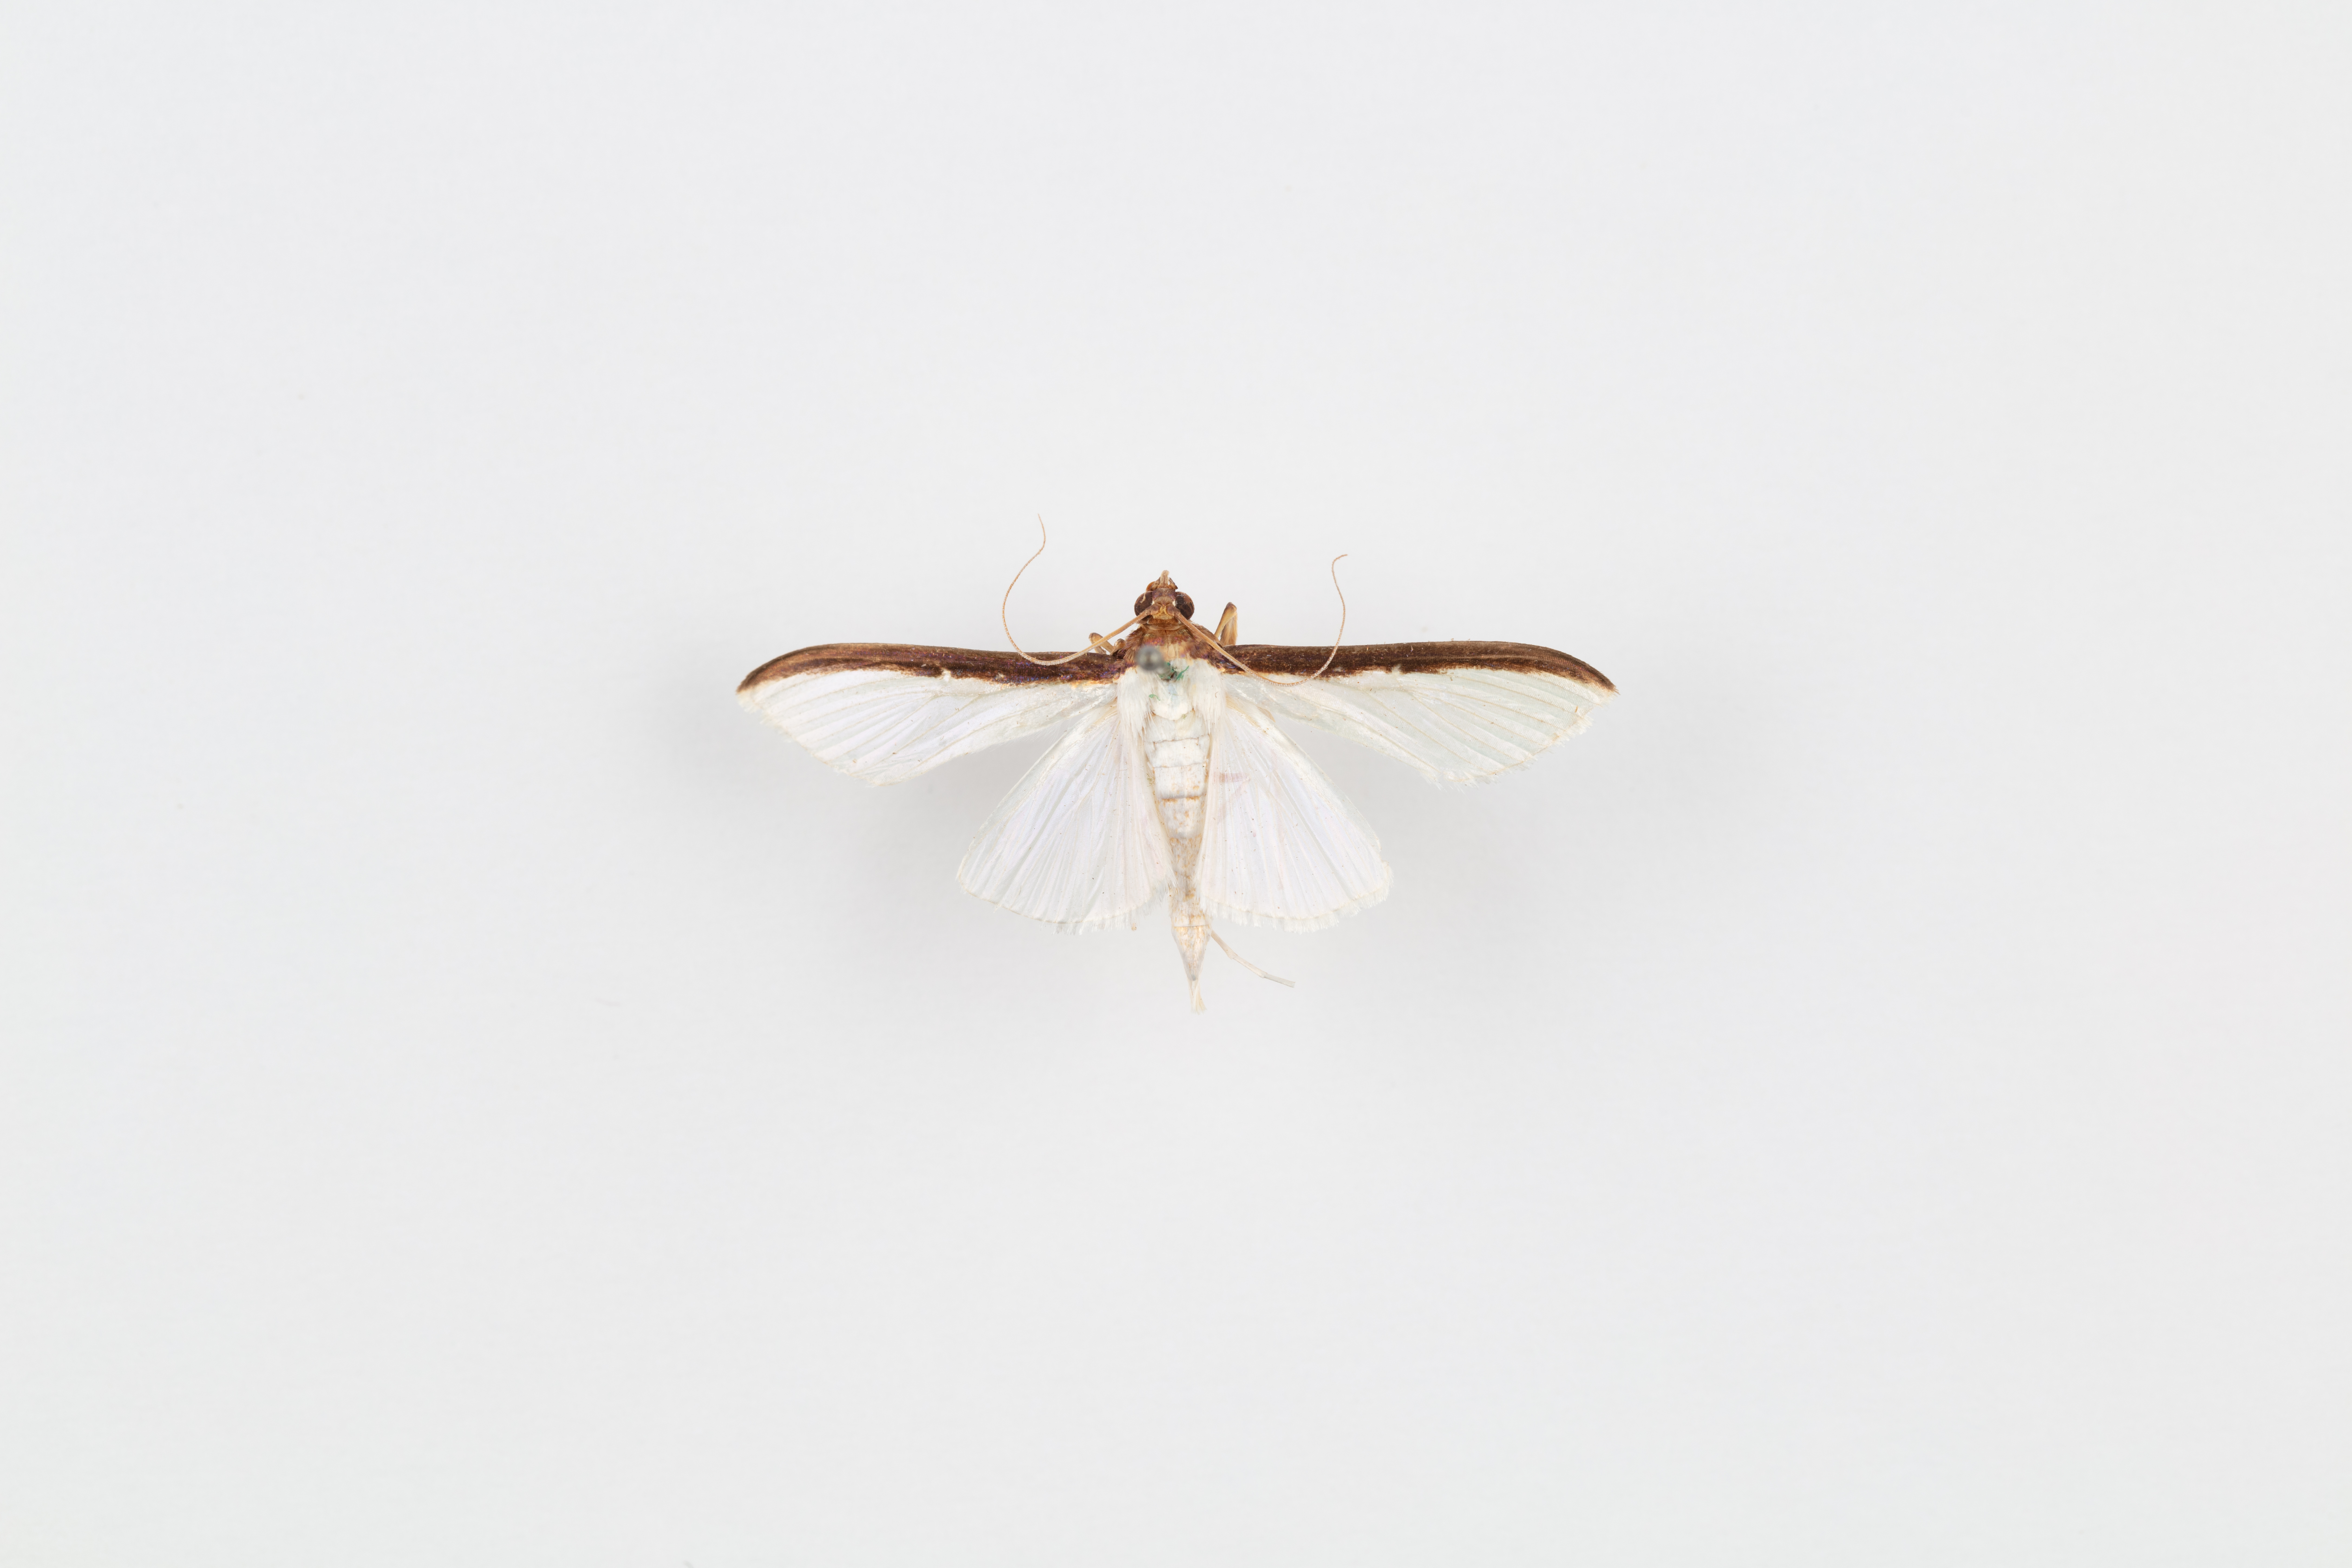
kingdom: Animalia
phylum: Arthropoda
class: Insecta
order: Lepidoptera
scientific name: Lepidoptera
